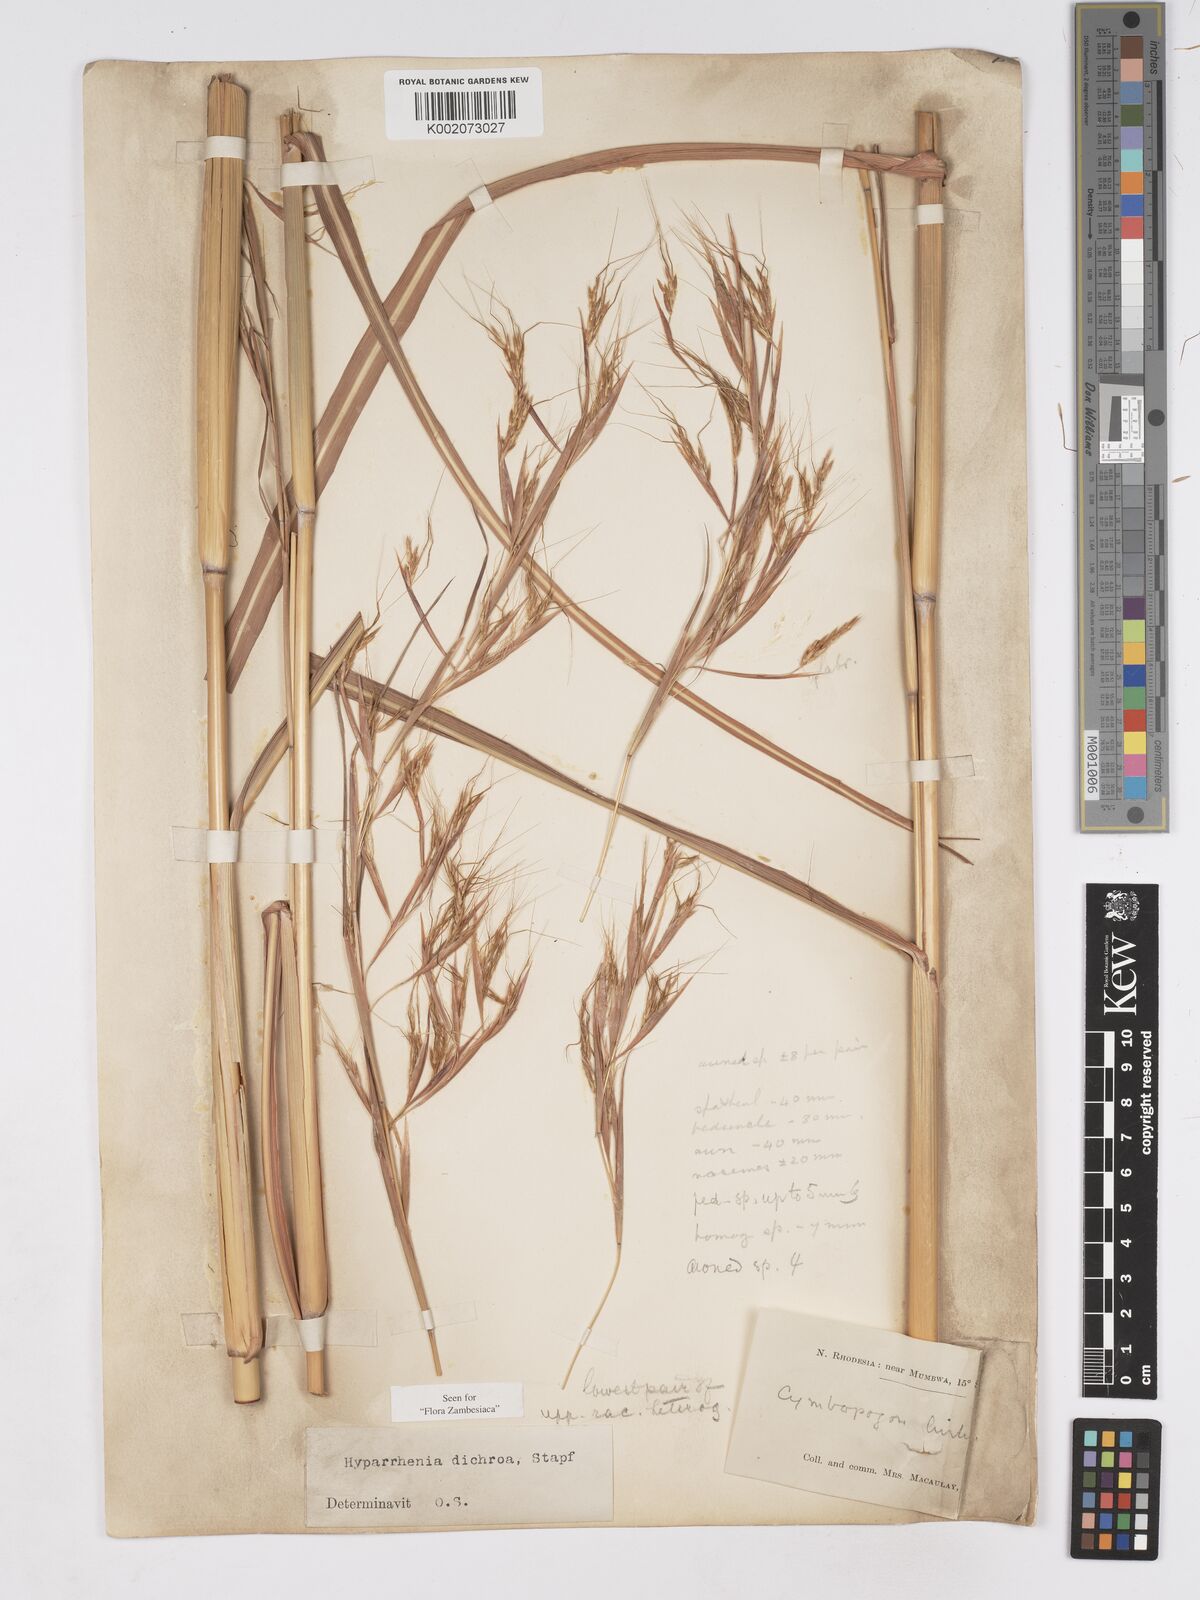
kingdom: Plantae
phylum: Tracheophyta
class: Liliopsida
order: Poales
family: Poaceae
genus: Hyparrhenia
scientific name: Hyparrhenia dichroa
